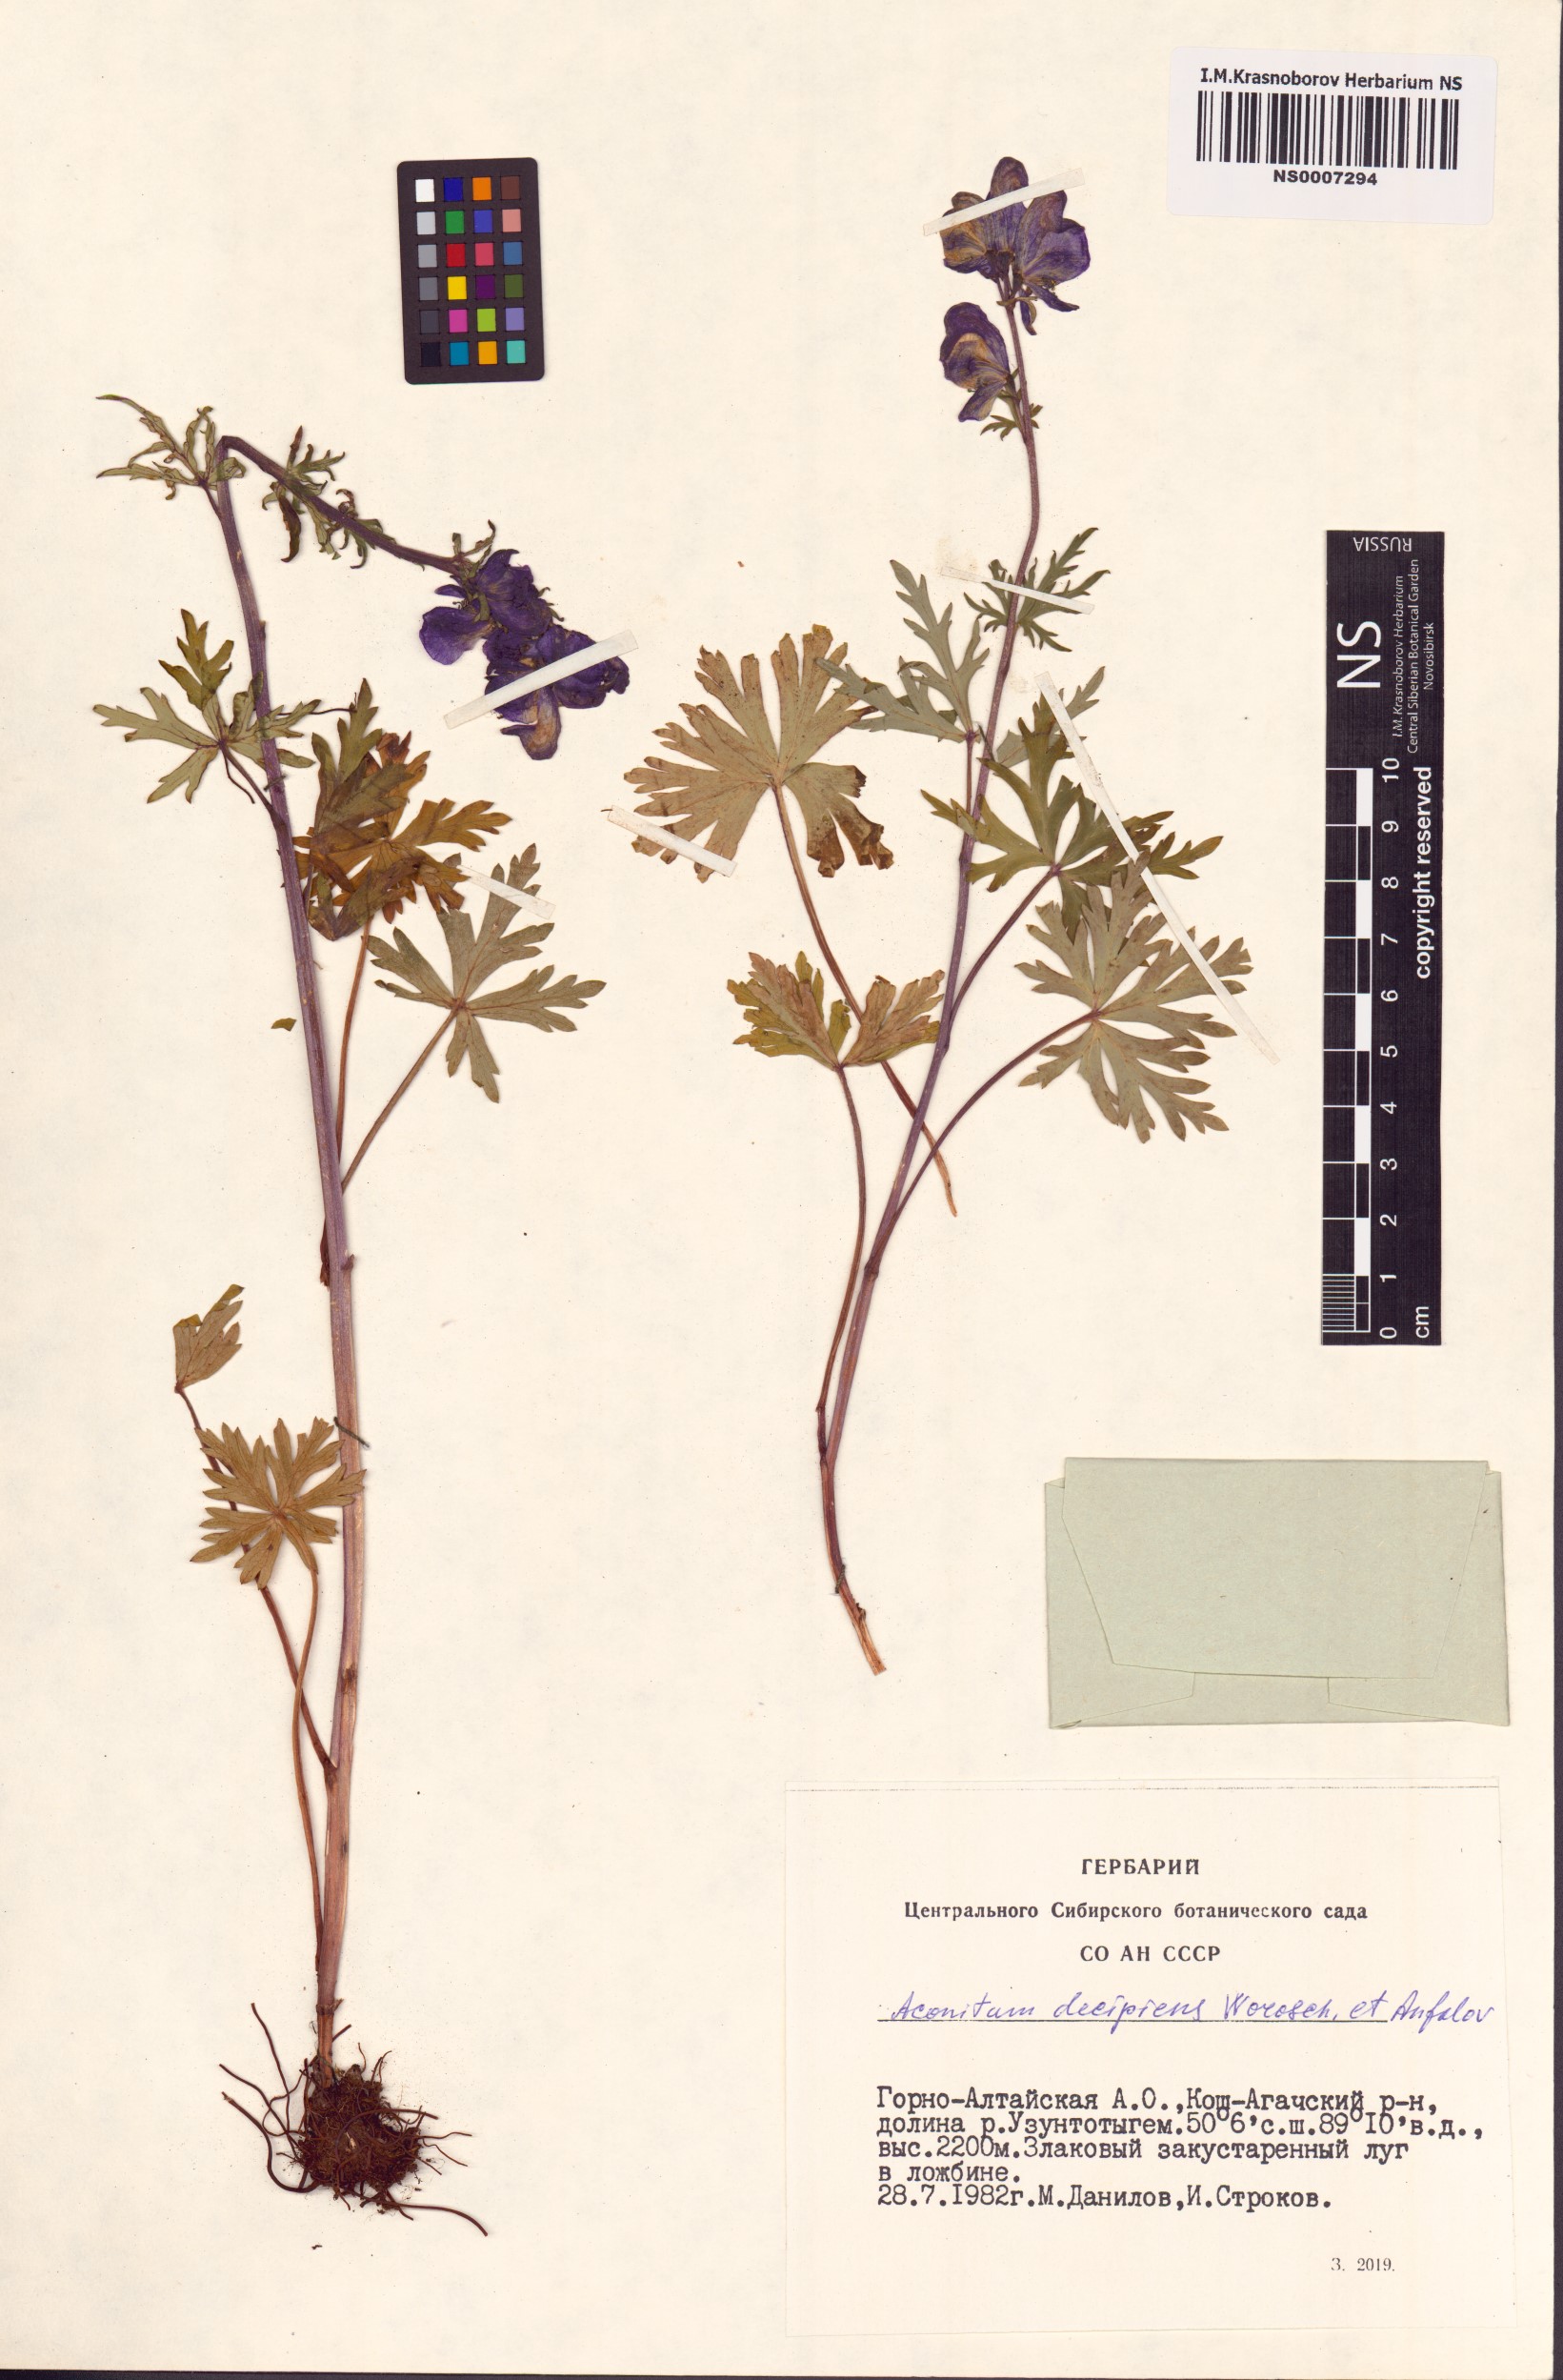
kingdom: Plantae
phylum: Tracheophyta
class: Magnoliopsida
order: Ranunculales
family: Ranunculaceae
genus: Aconitum
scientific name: Aconitum decipiens
